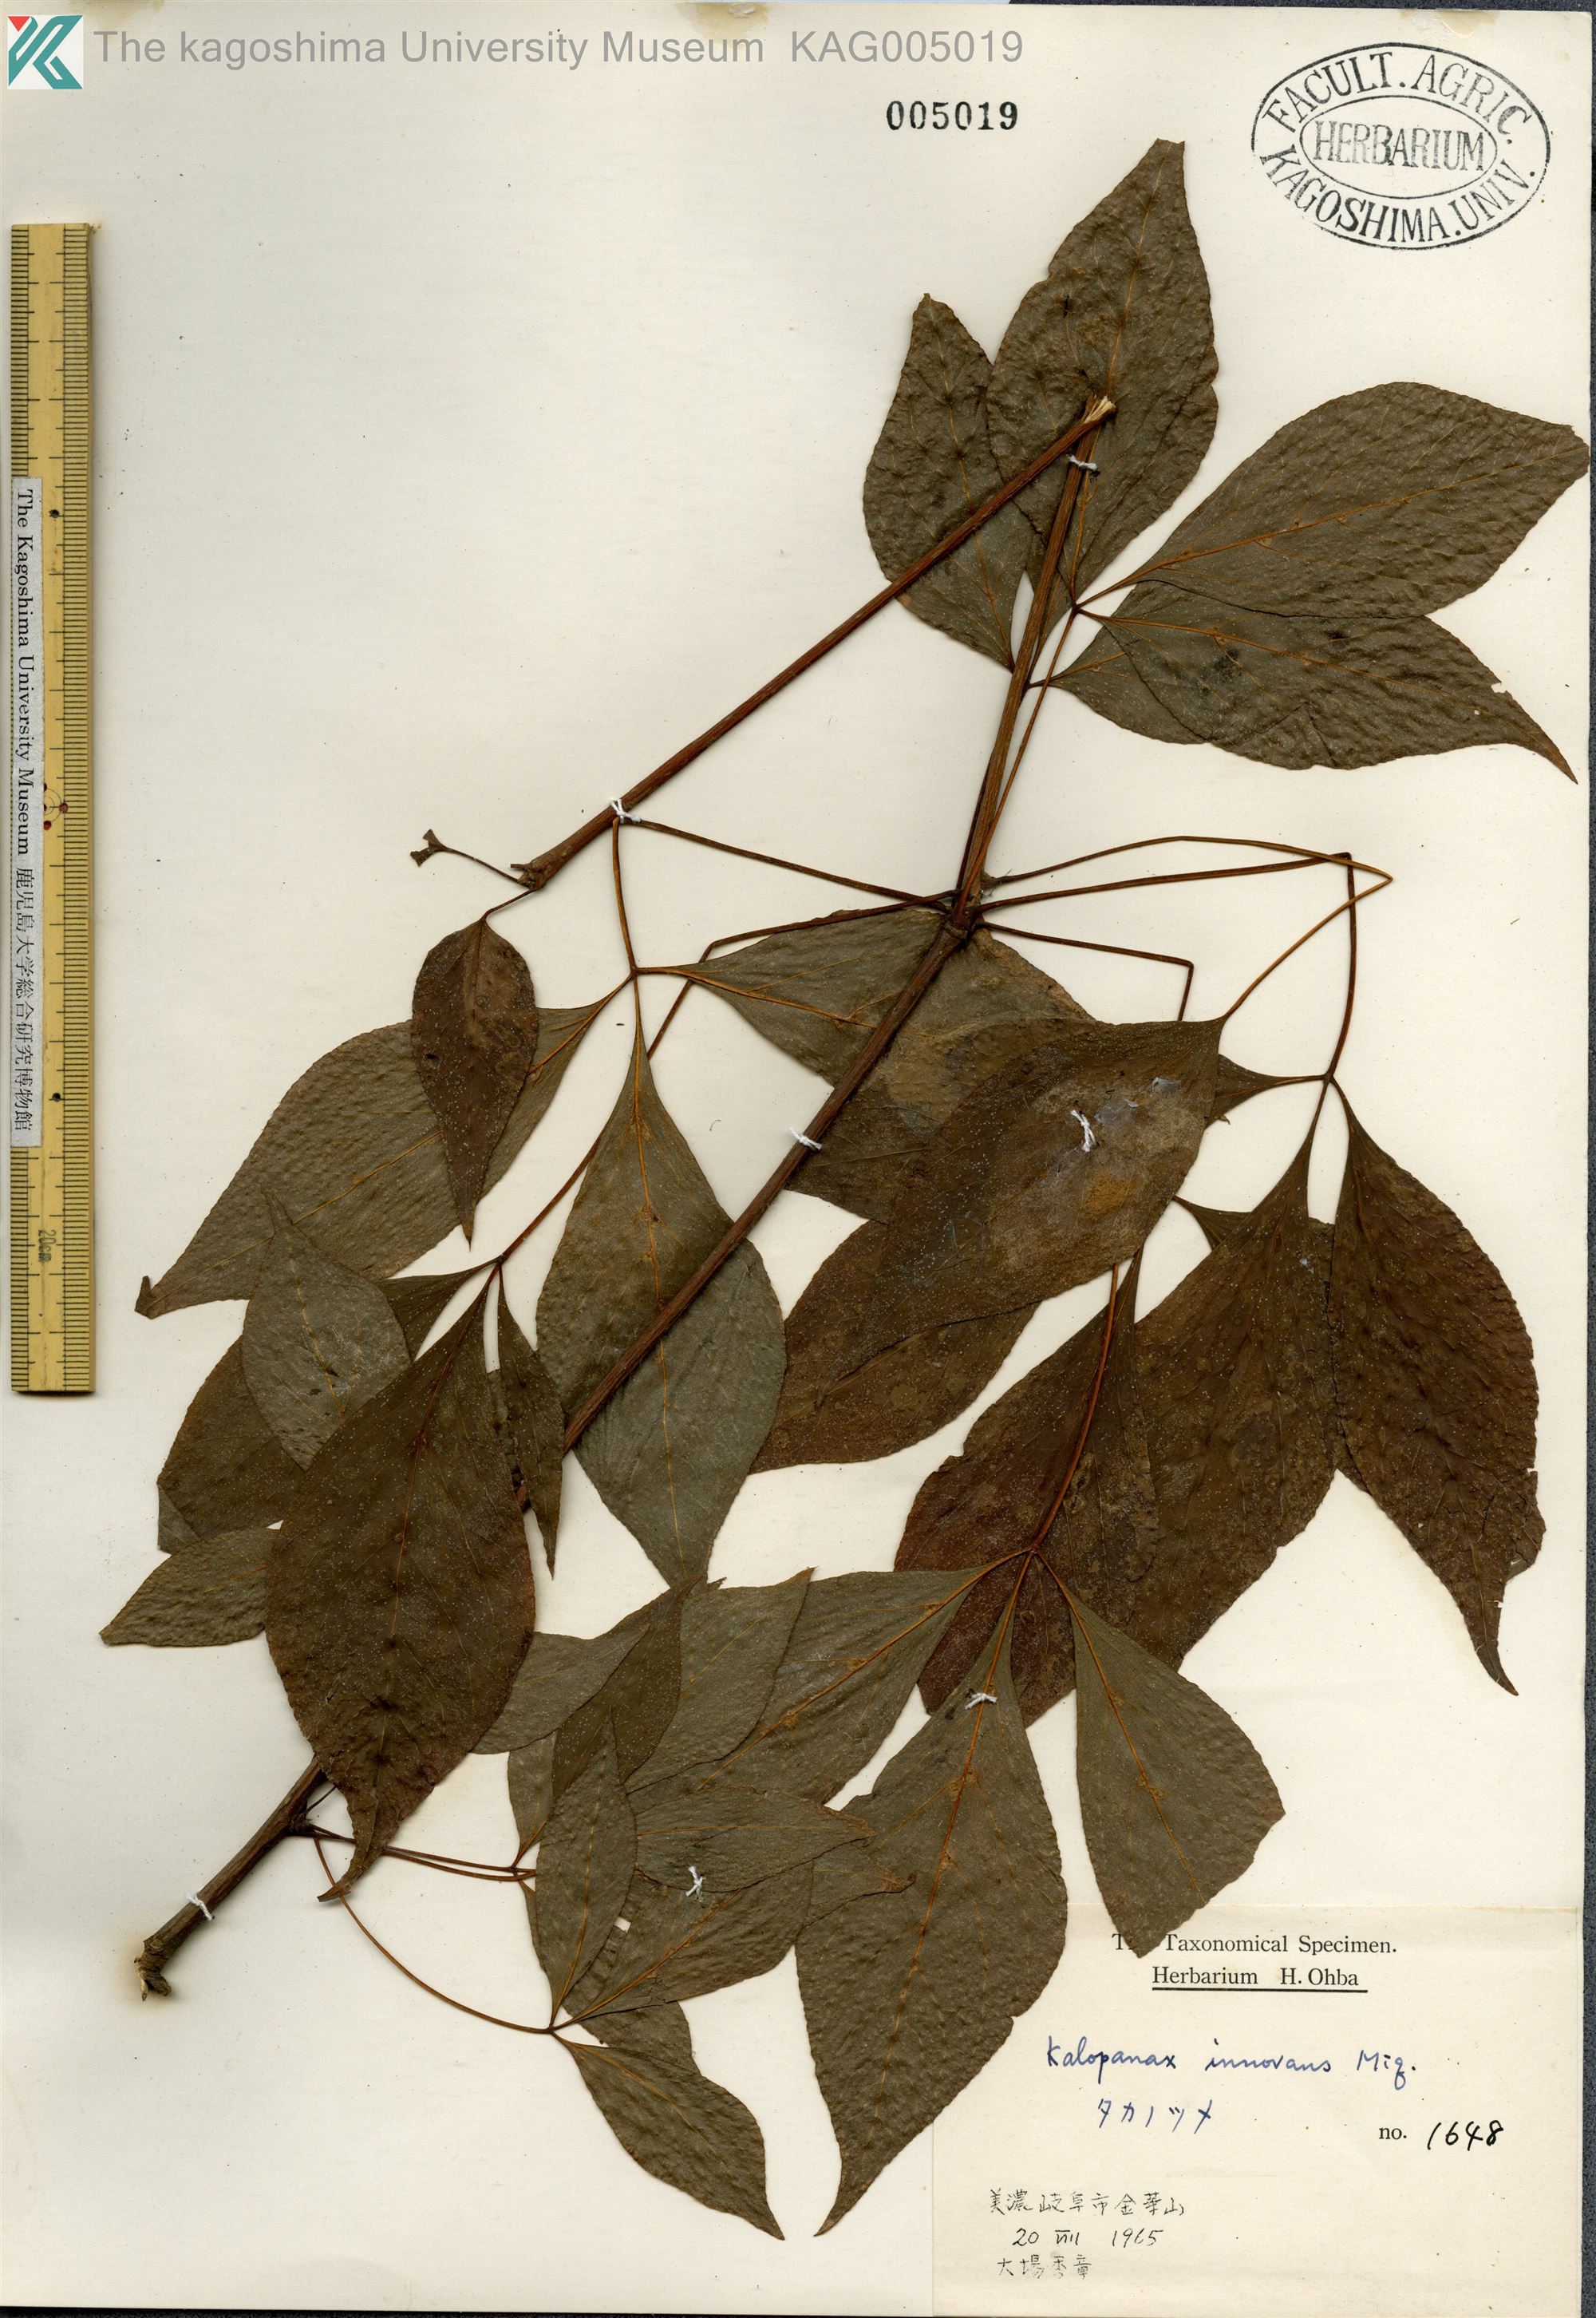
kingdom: Plantae
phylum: Tracheophyta
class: Magnoliopsida
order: Apiales
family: Araliaceae
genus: Gamblea
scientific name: Gamblea innovans
